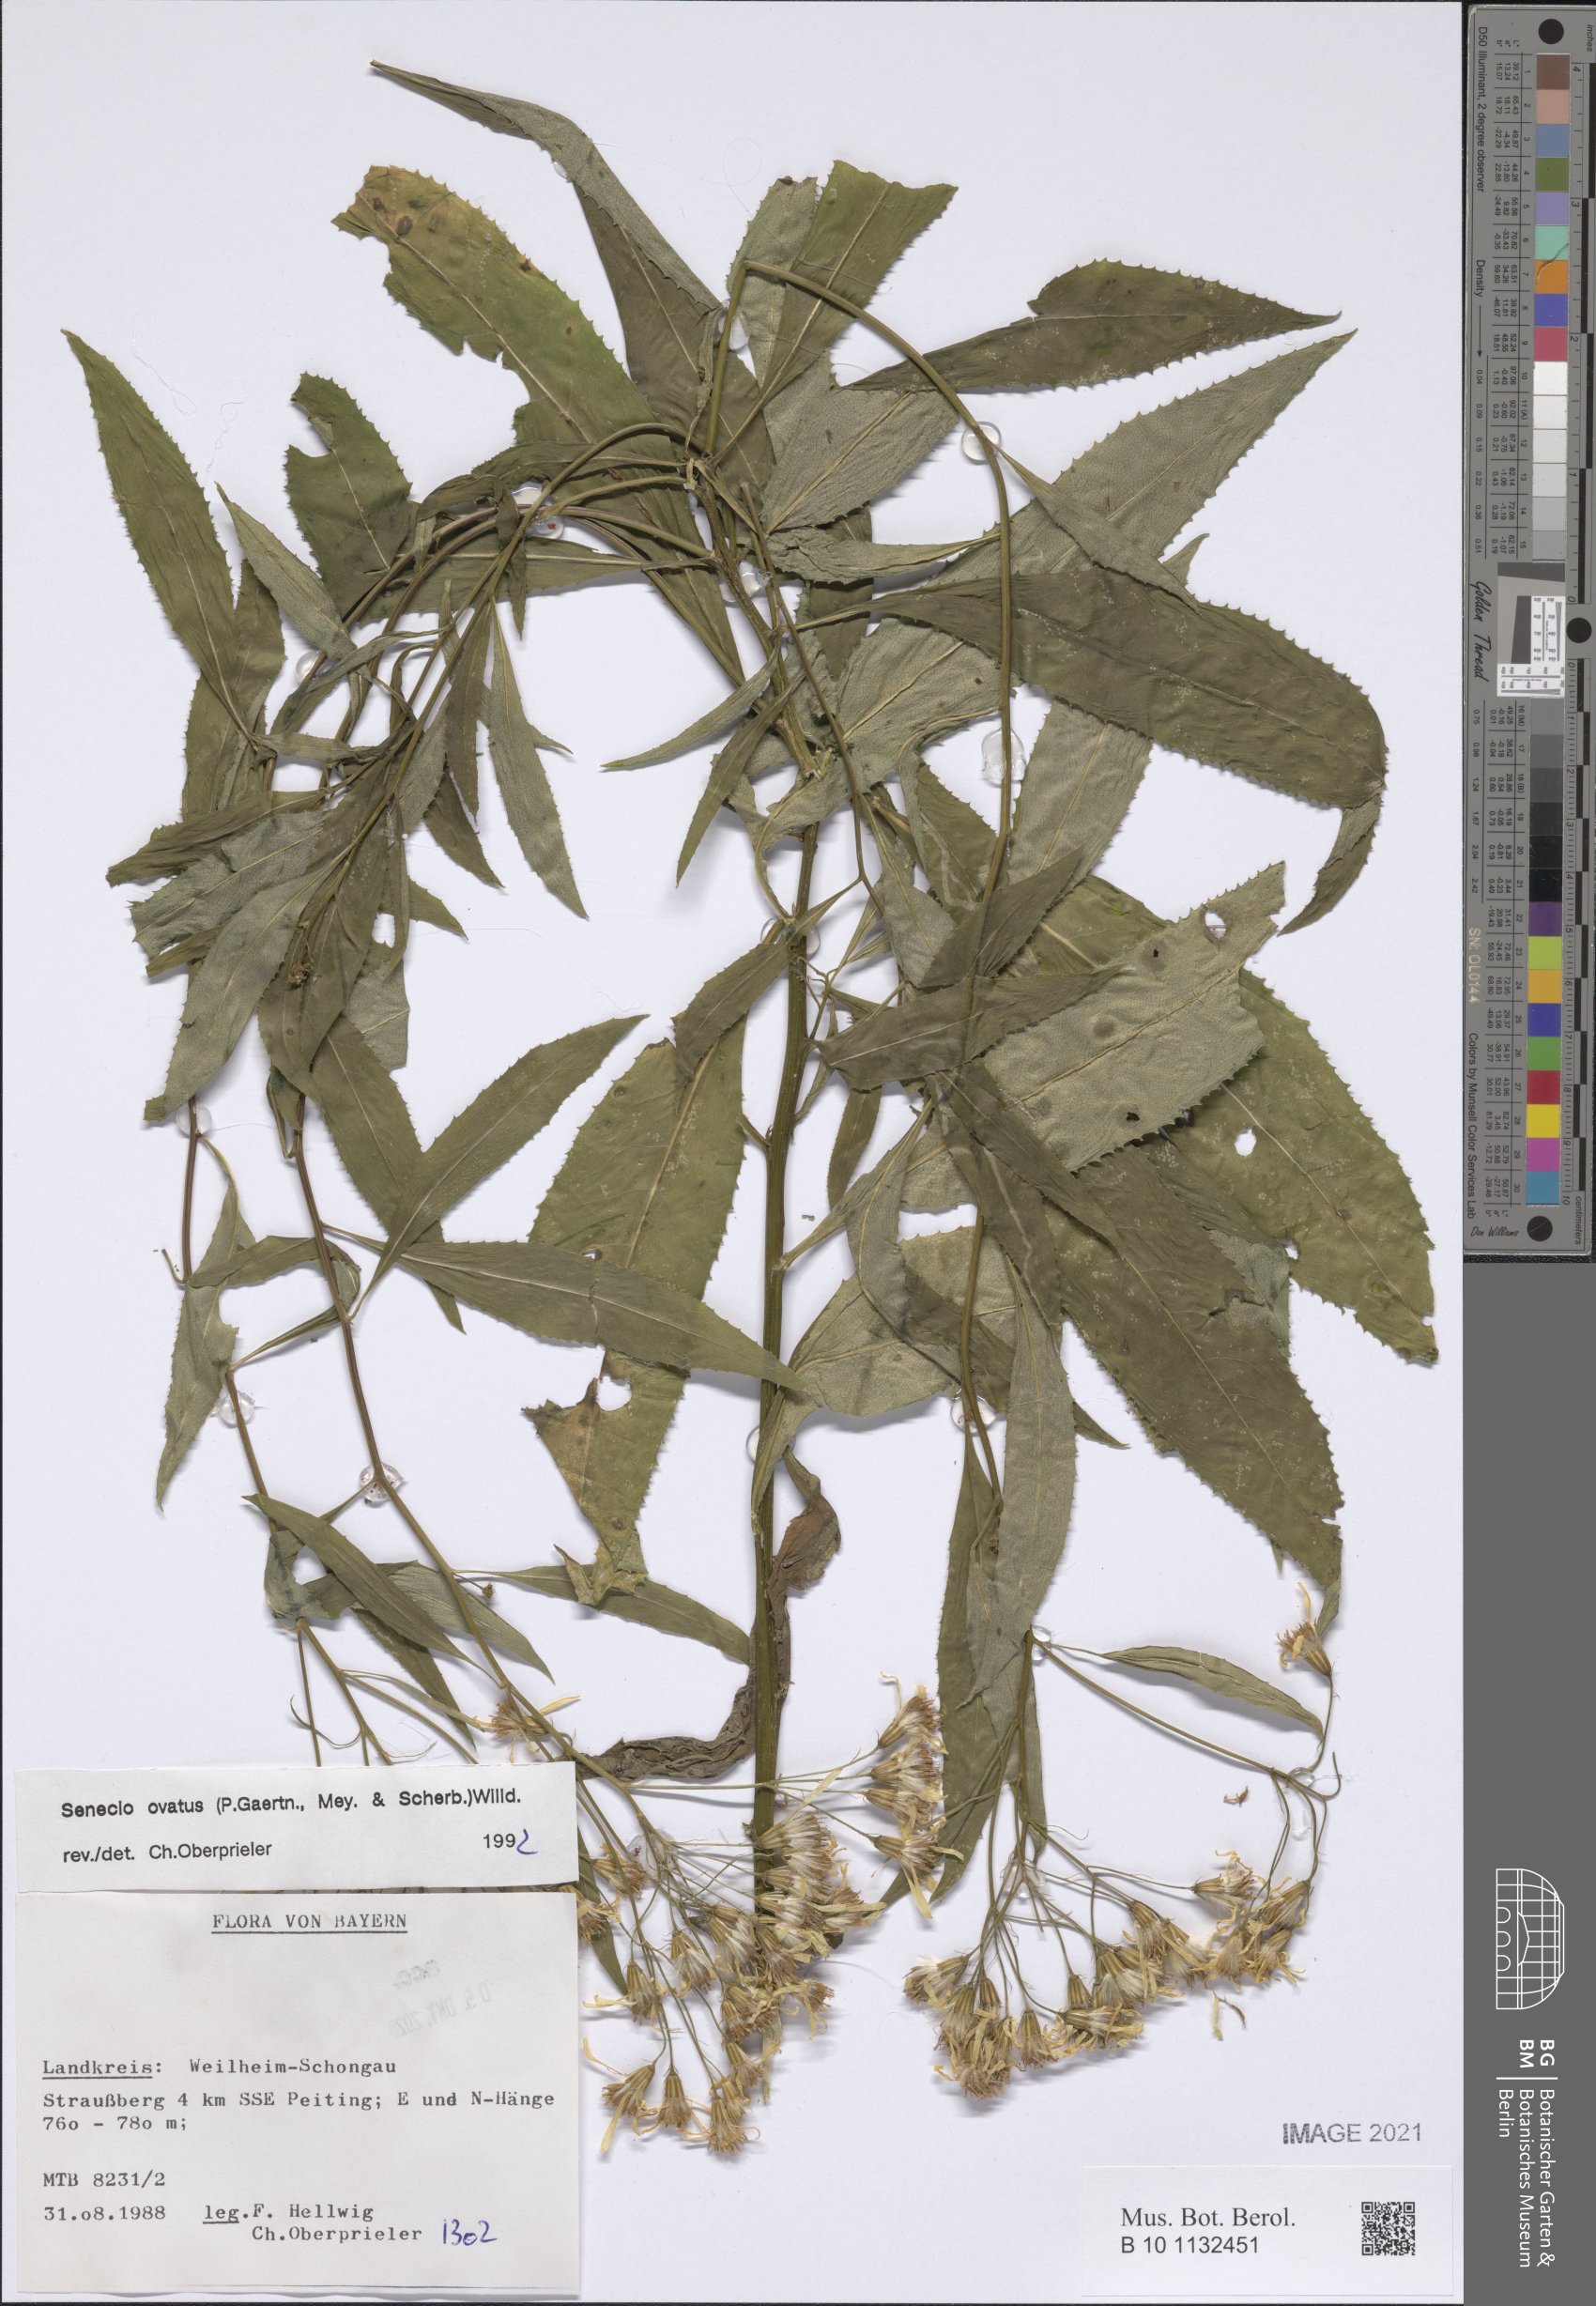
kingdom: Plantae
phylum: Tracheophyta
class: Magnoliopsida
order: Asterales
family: Asteraceae
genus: Senecio
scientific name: Senecio ovatus
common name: Wood ragwort
